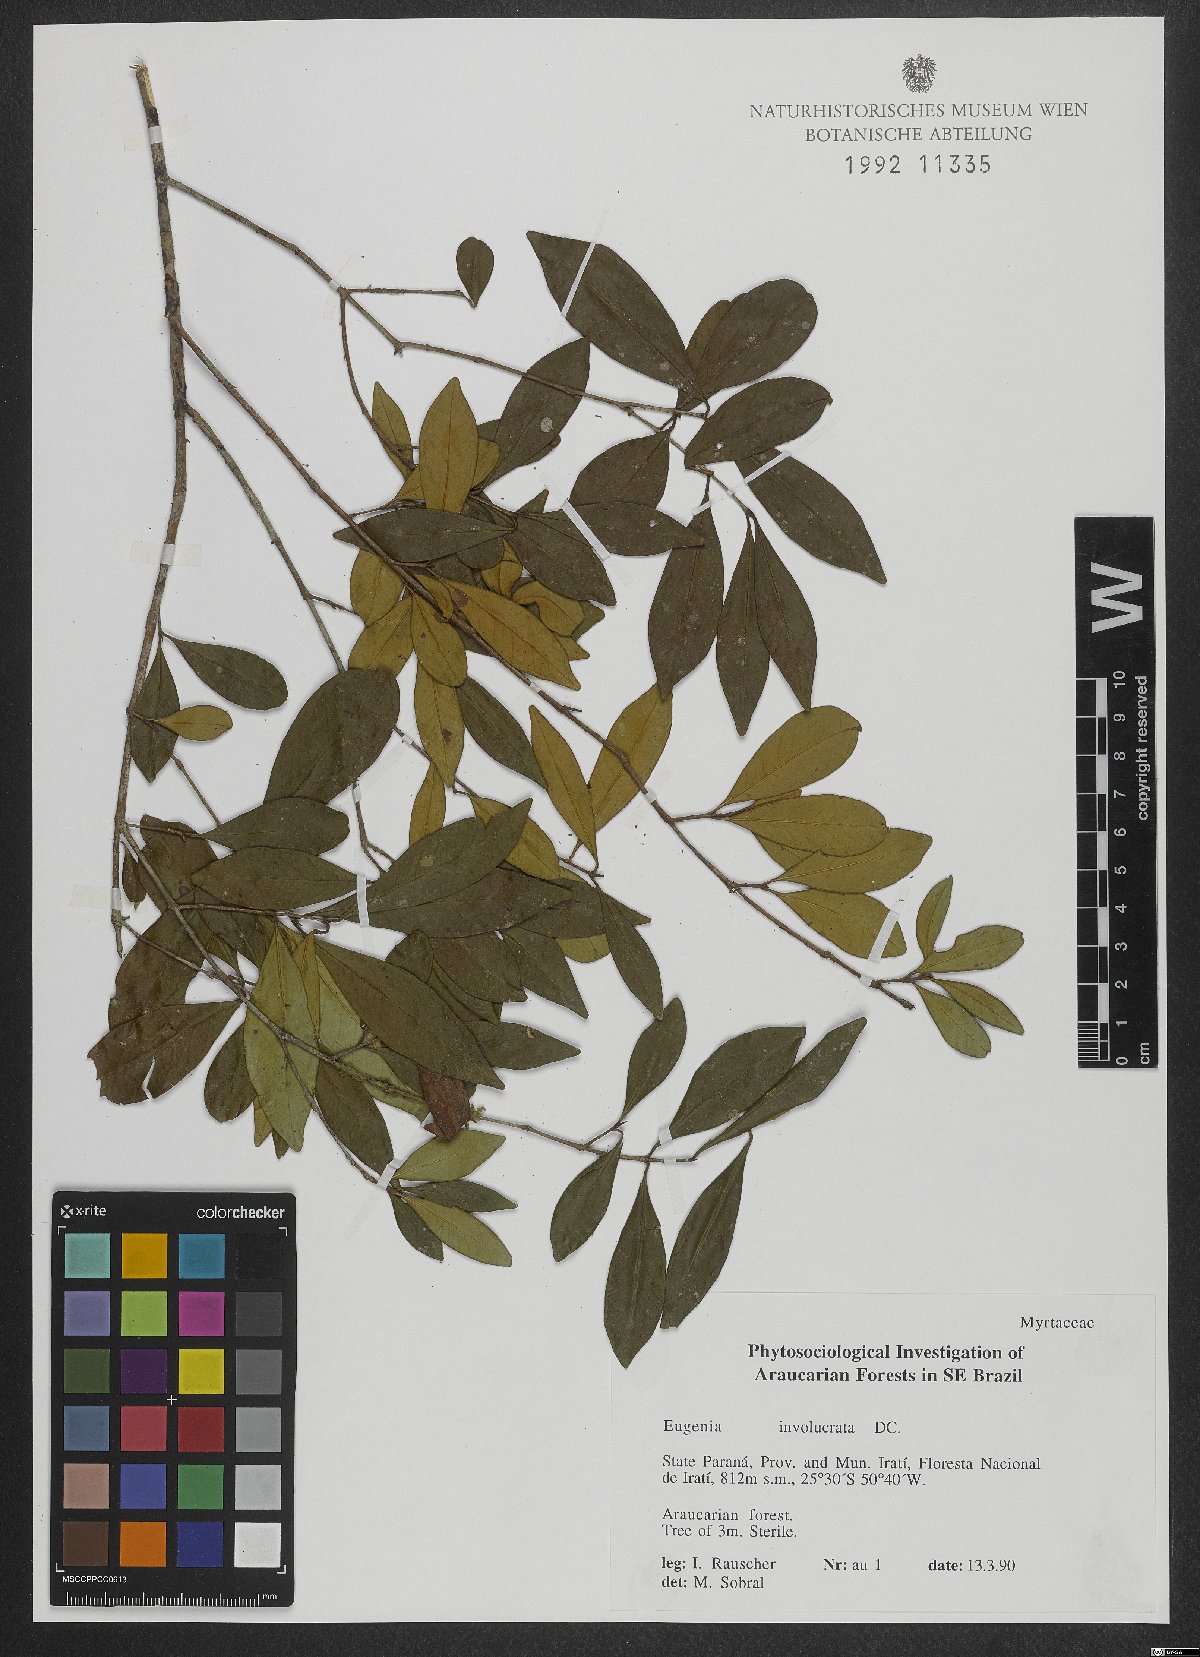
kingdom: Plantae
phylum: Tracheophyta
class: Magnoliopsida
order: Myrtales
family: Myrtaceae
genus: Eugenia
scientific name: Eugenia involucrata
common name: Cherry-of-the-rio grande
